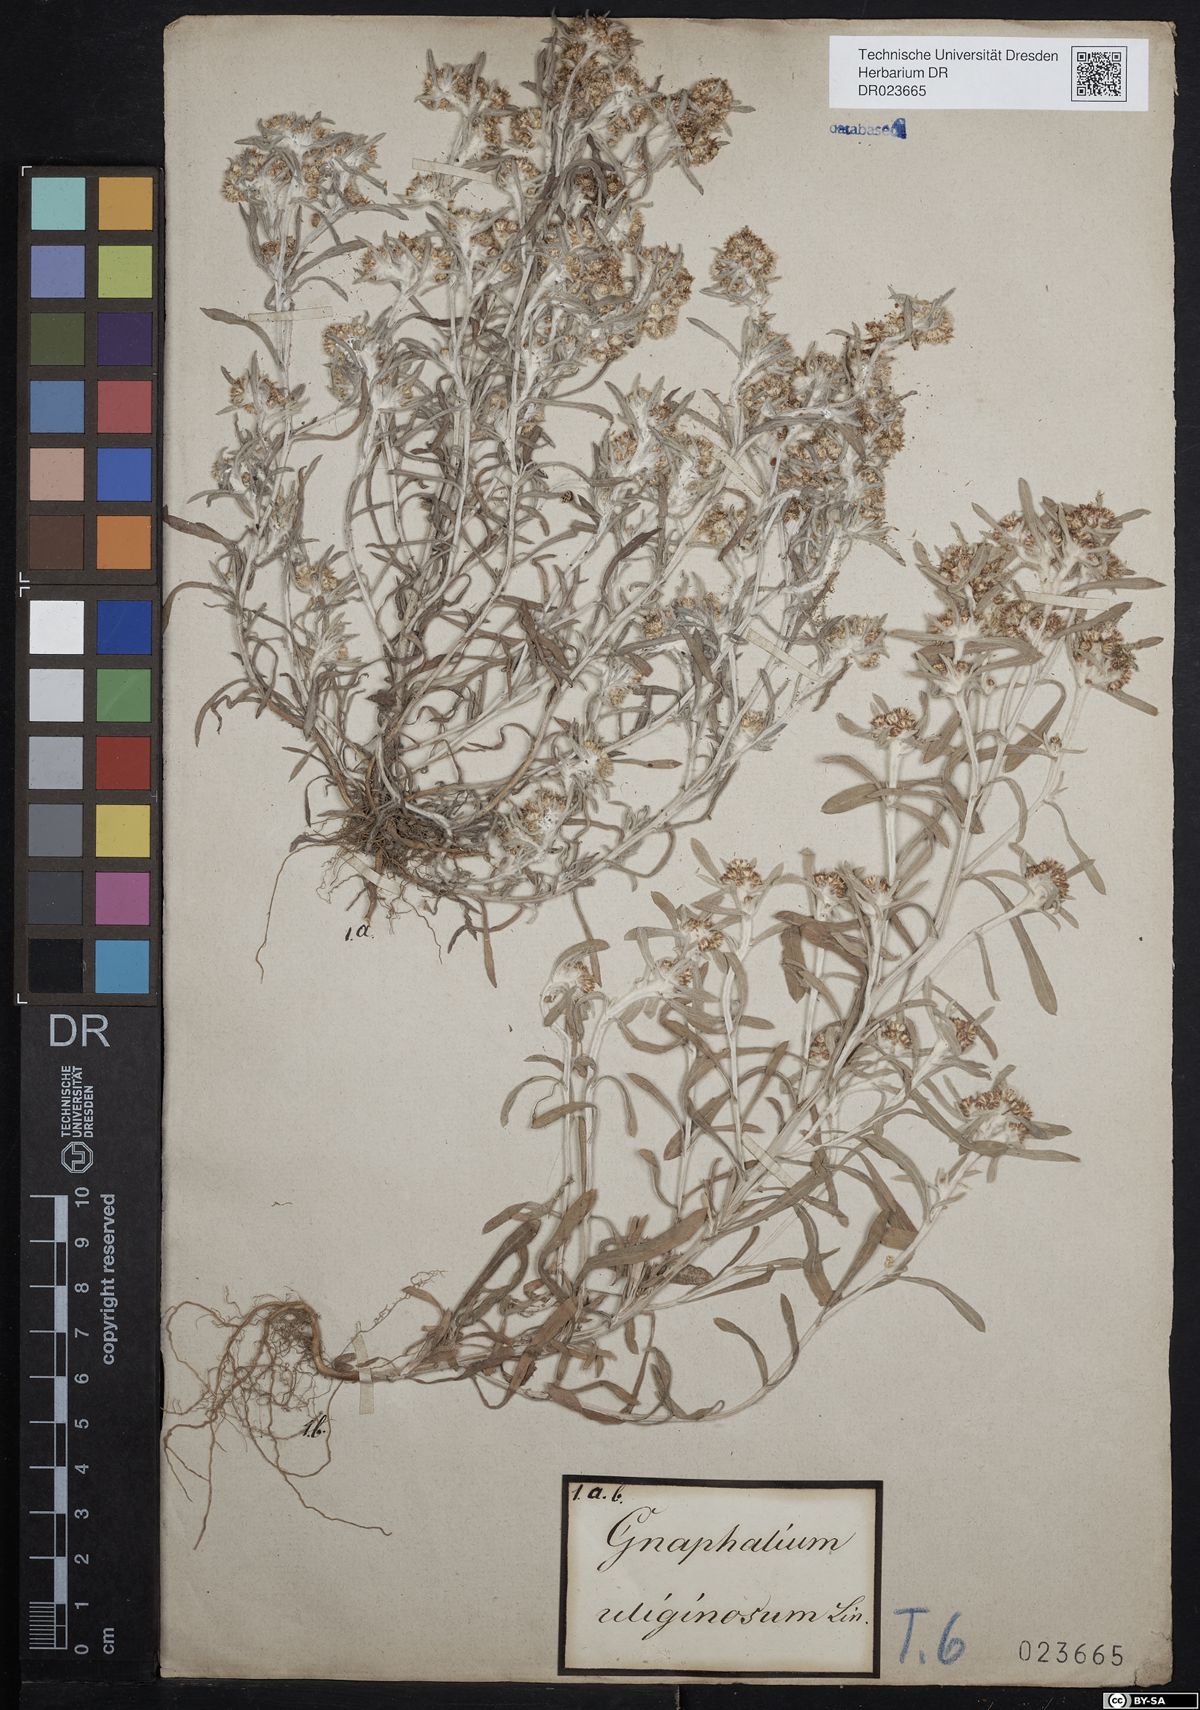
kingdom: Plantae
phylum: Tracheophyta
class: Magnoliopsida
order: Asterales
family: Asteraceae
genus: Gnaphalium
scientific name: Gnaphalium uliginosum
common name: Marsh cudweed
